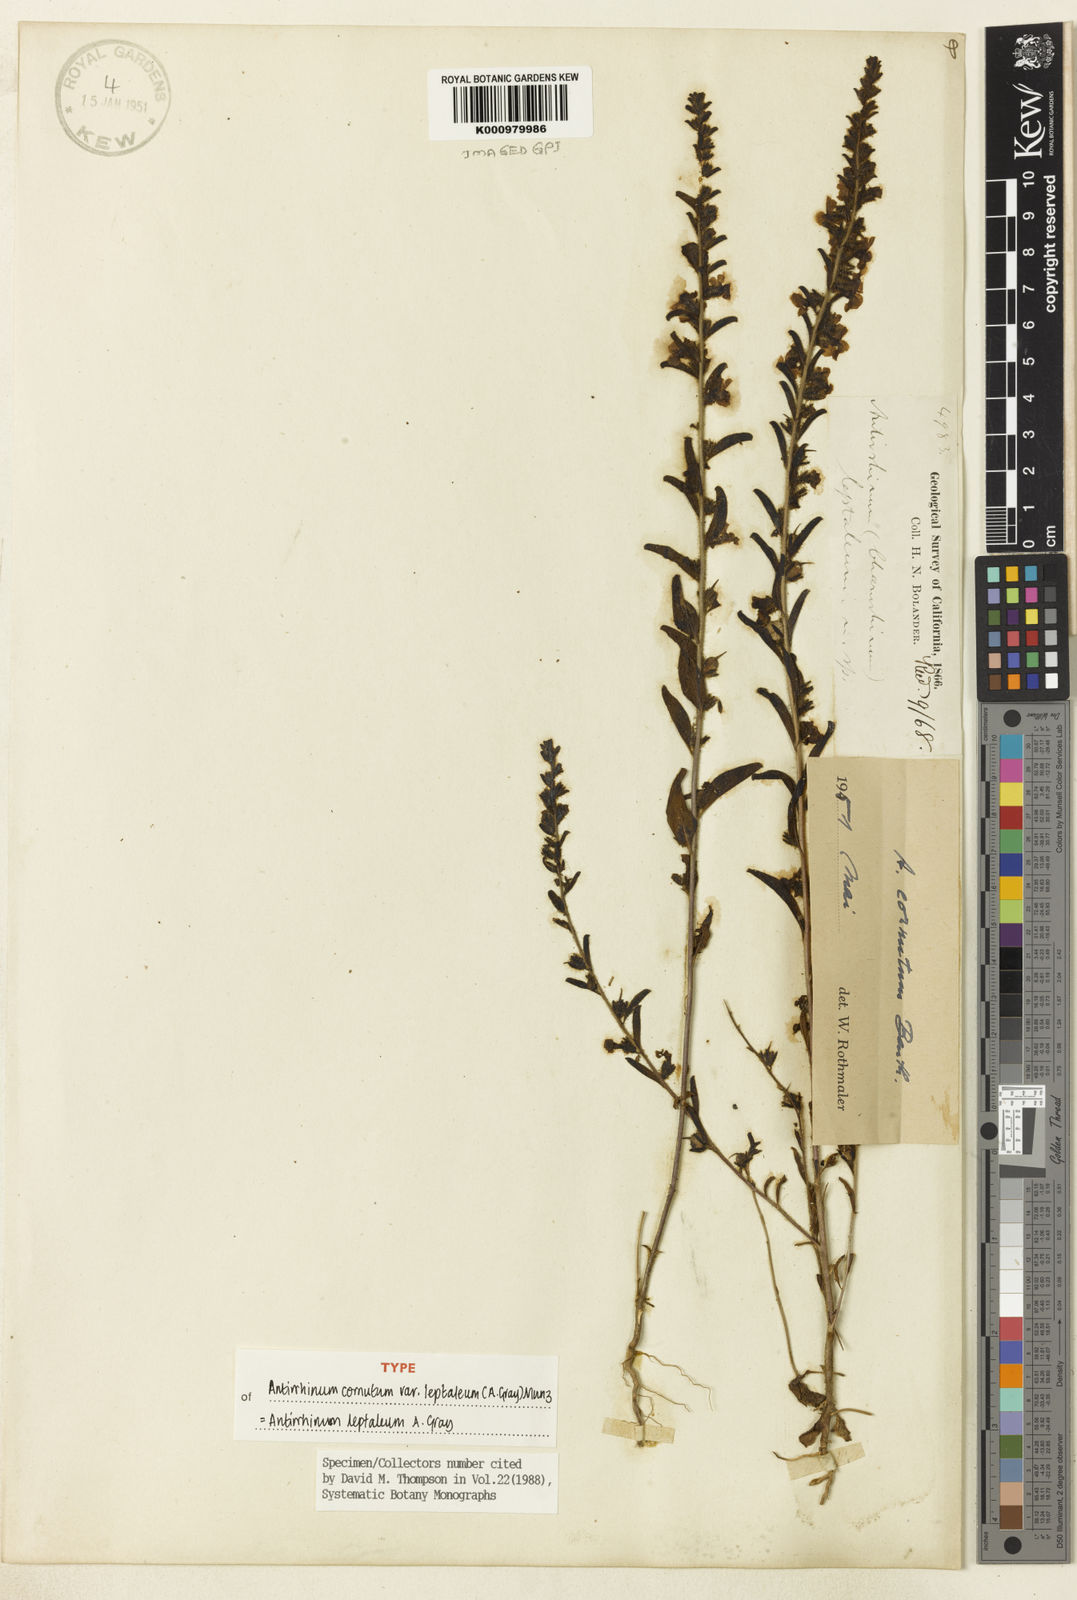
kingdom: Plantae
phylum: Tracheophyta
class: Magnoliopsida
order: Lamiales
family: Plantaginaceae
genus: Sairocarpus
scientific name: Sairocarpus cornutus
